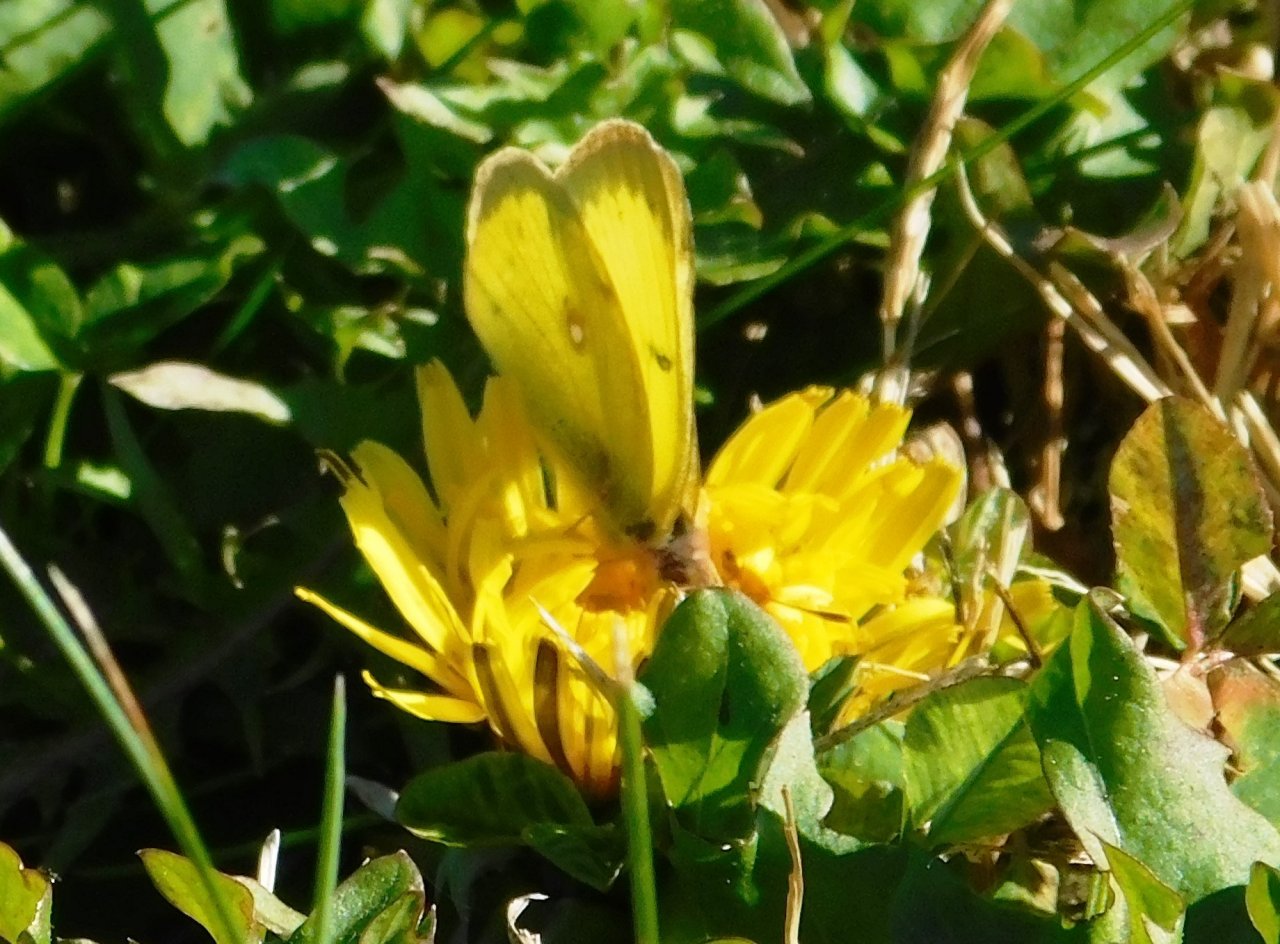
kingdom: Animalia
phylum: Arthropoda
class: Insecta
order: Lepidoptera
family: Pieridae
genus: Colias
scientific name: Colias philodice
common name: Clouded Sulphur
